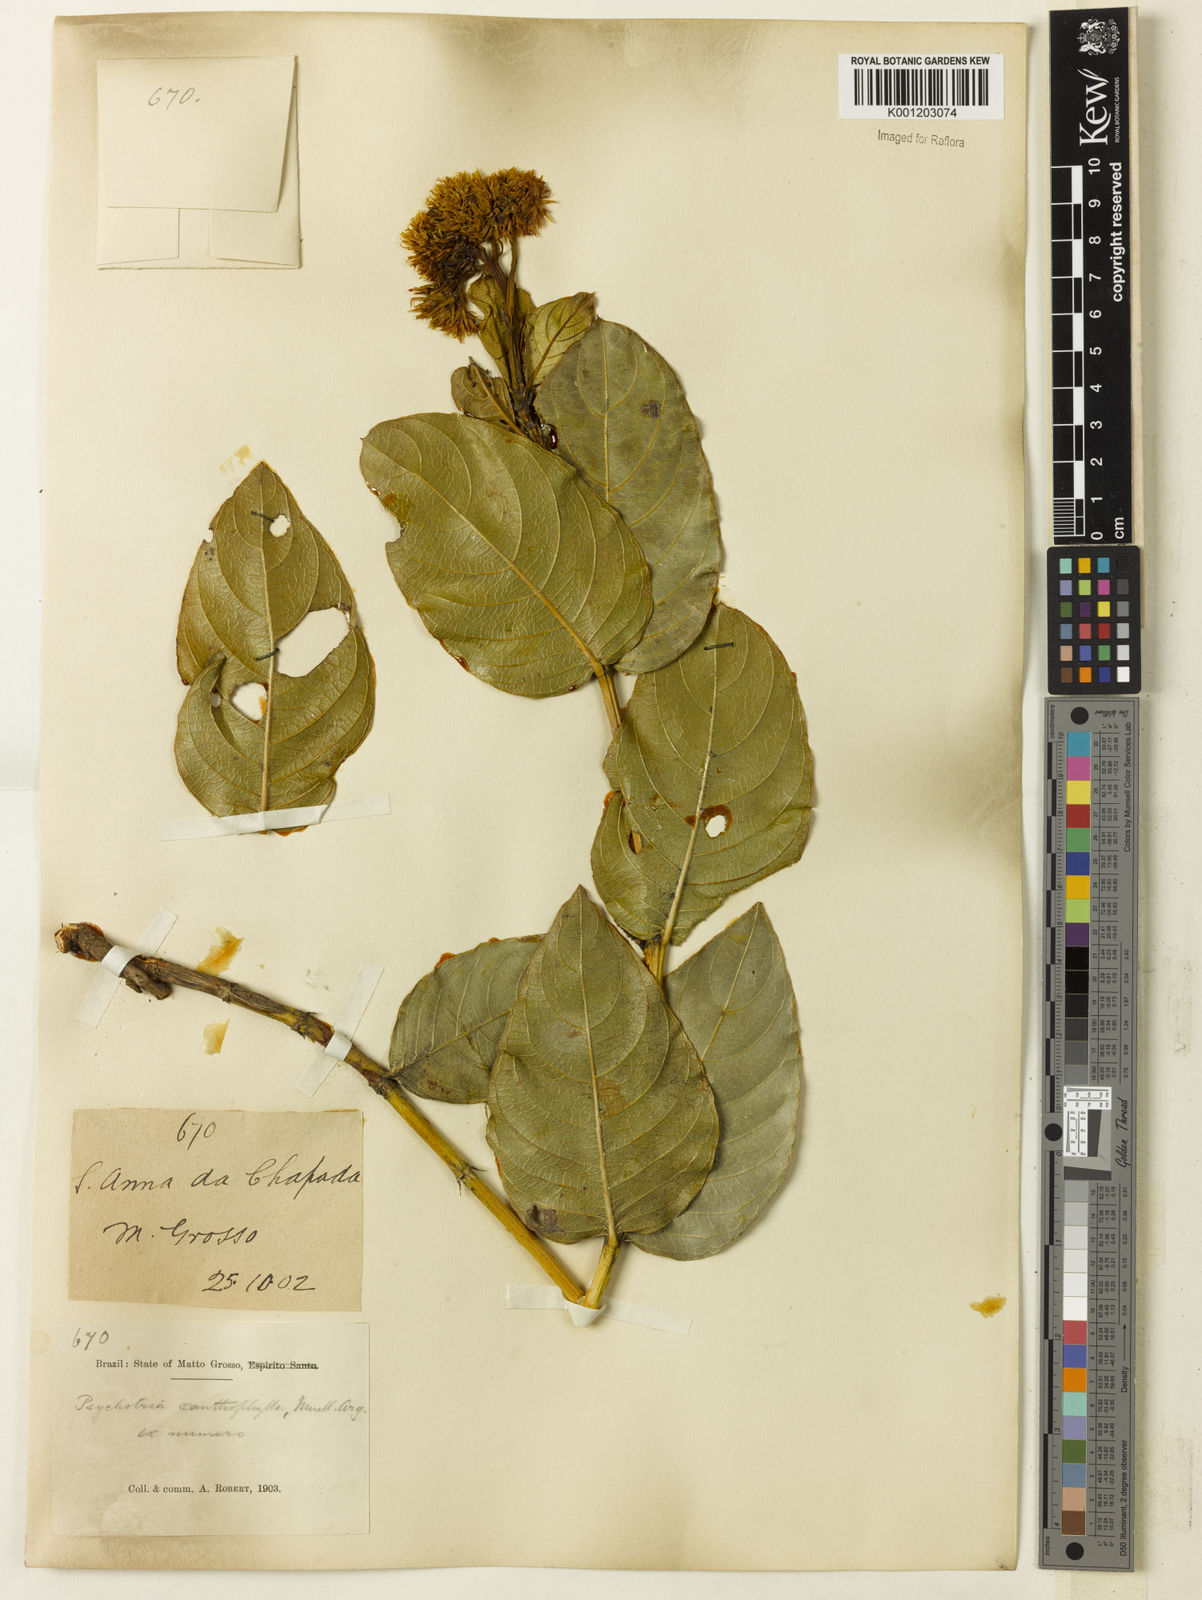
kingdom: Plantae
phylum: Tracheophyta
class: Magnoliopsida
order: Gentianales
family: Rubiaceae
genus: Palicourea
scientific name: Palicourea coriacea
